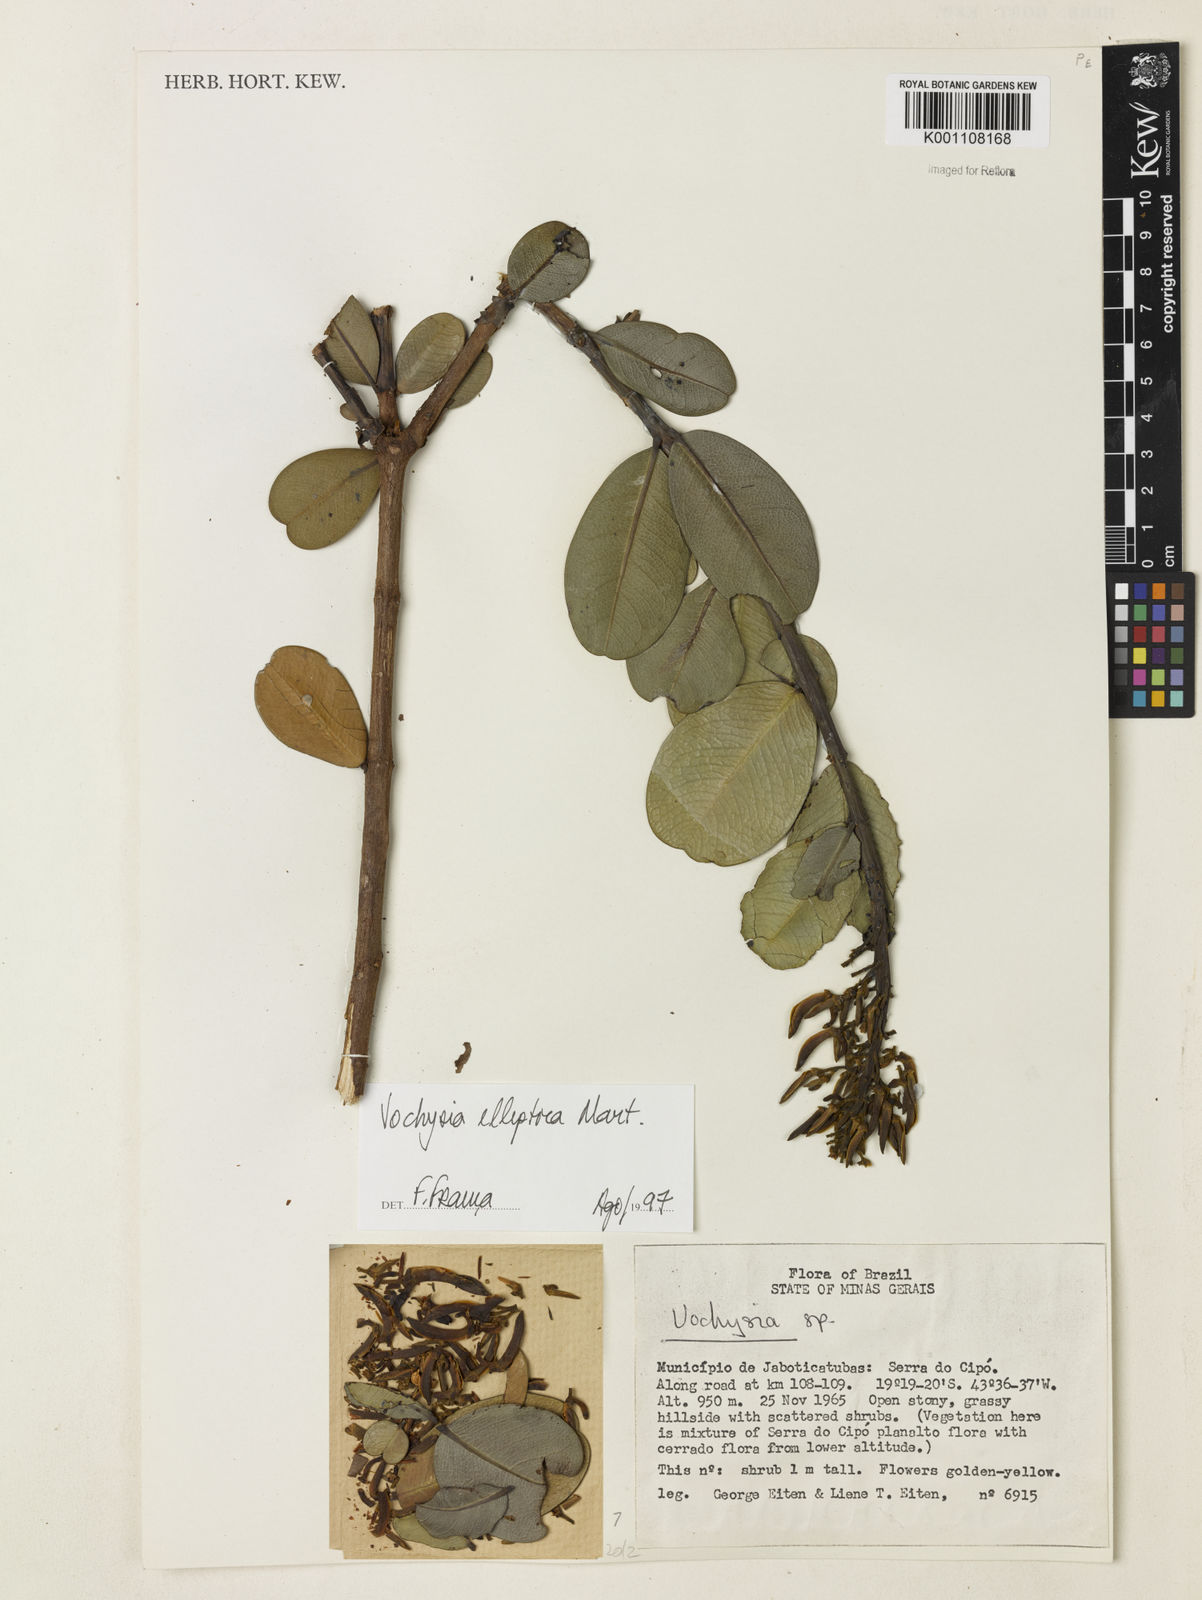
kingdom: Plantae
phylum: Tracheophyta
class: Magnoliopsida
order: Myrtales
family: Vochysiaceae
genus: Vochysia
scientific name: Vochysia elliptica
